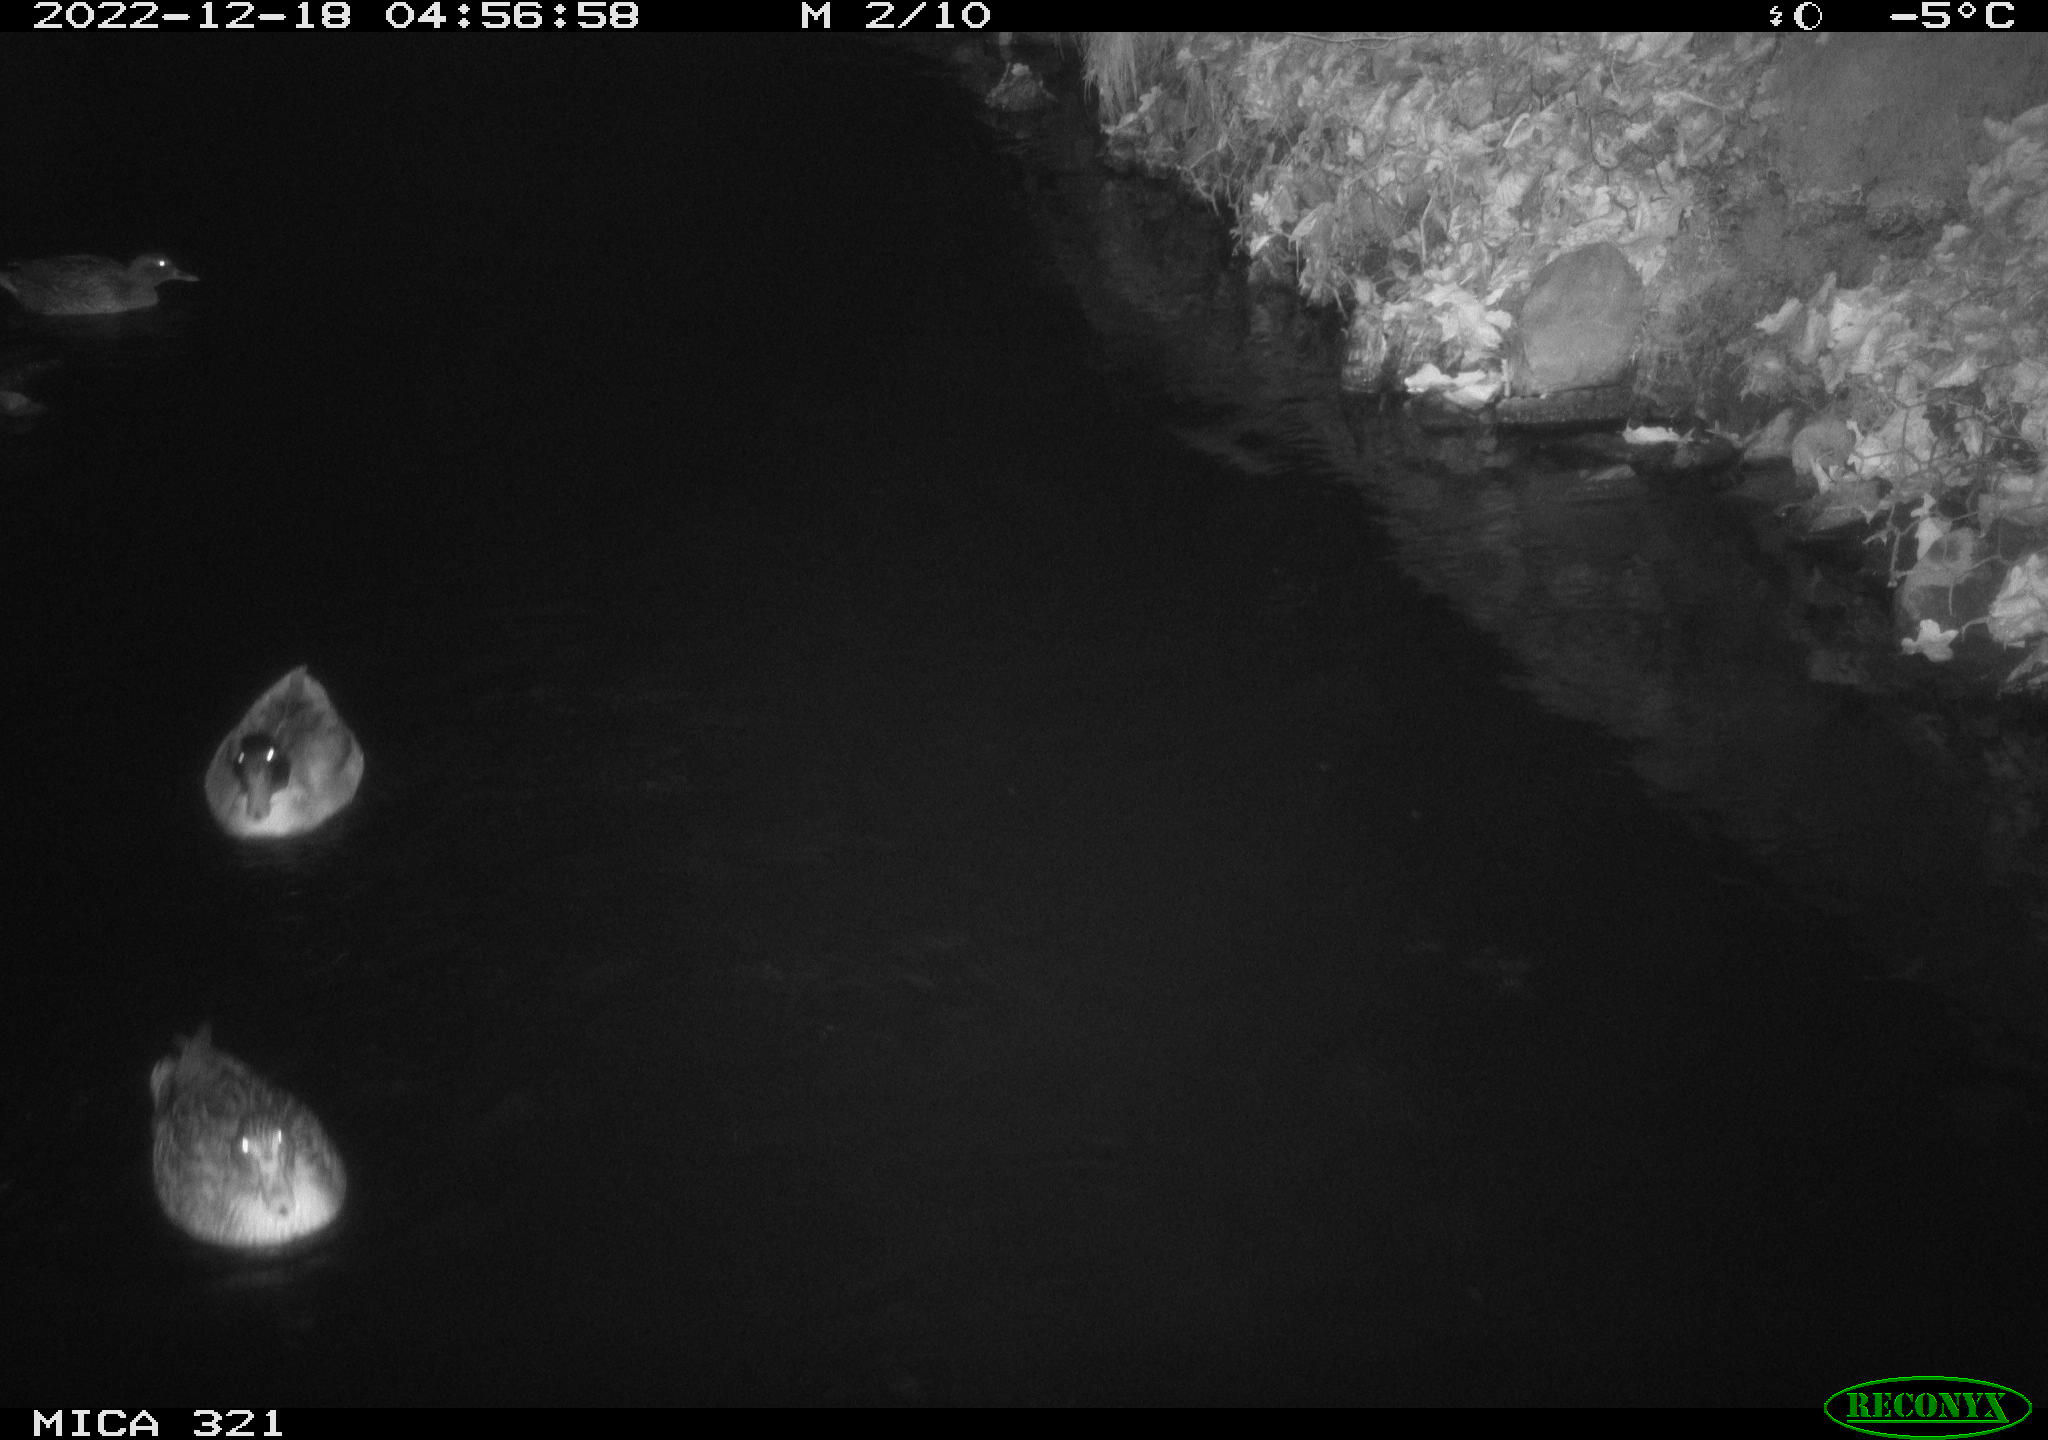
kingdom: Animalia
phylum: Chordata
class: Aves
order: Anseriformes
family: Anatidae
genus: Anas
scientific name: Anas
